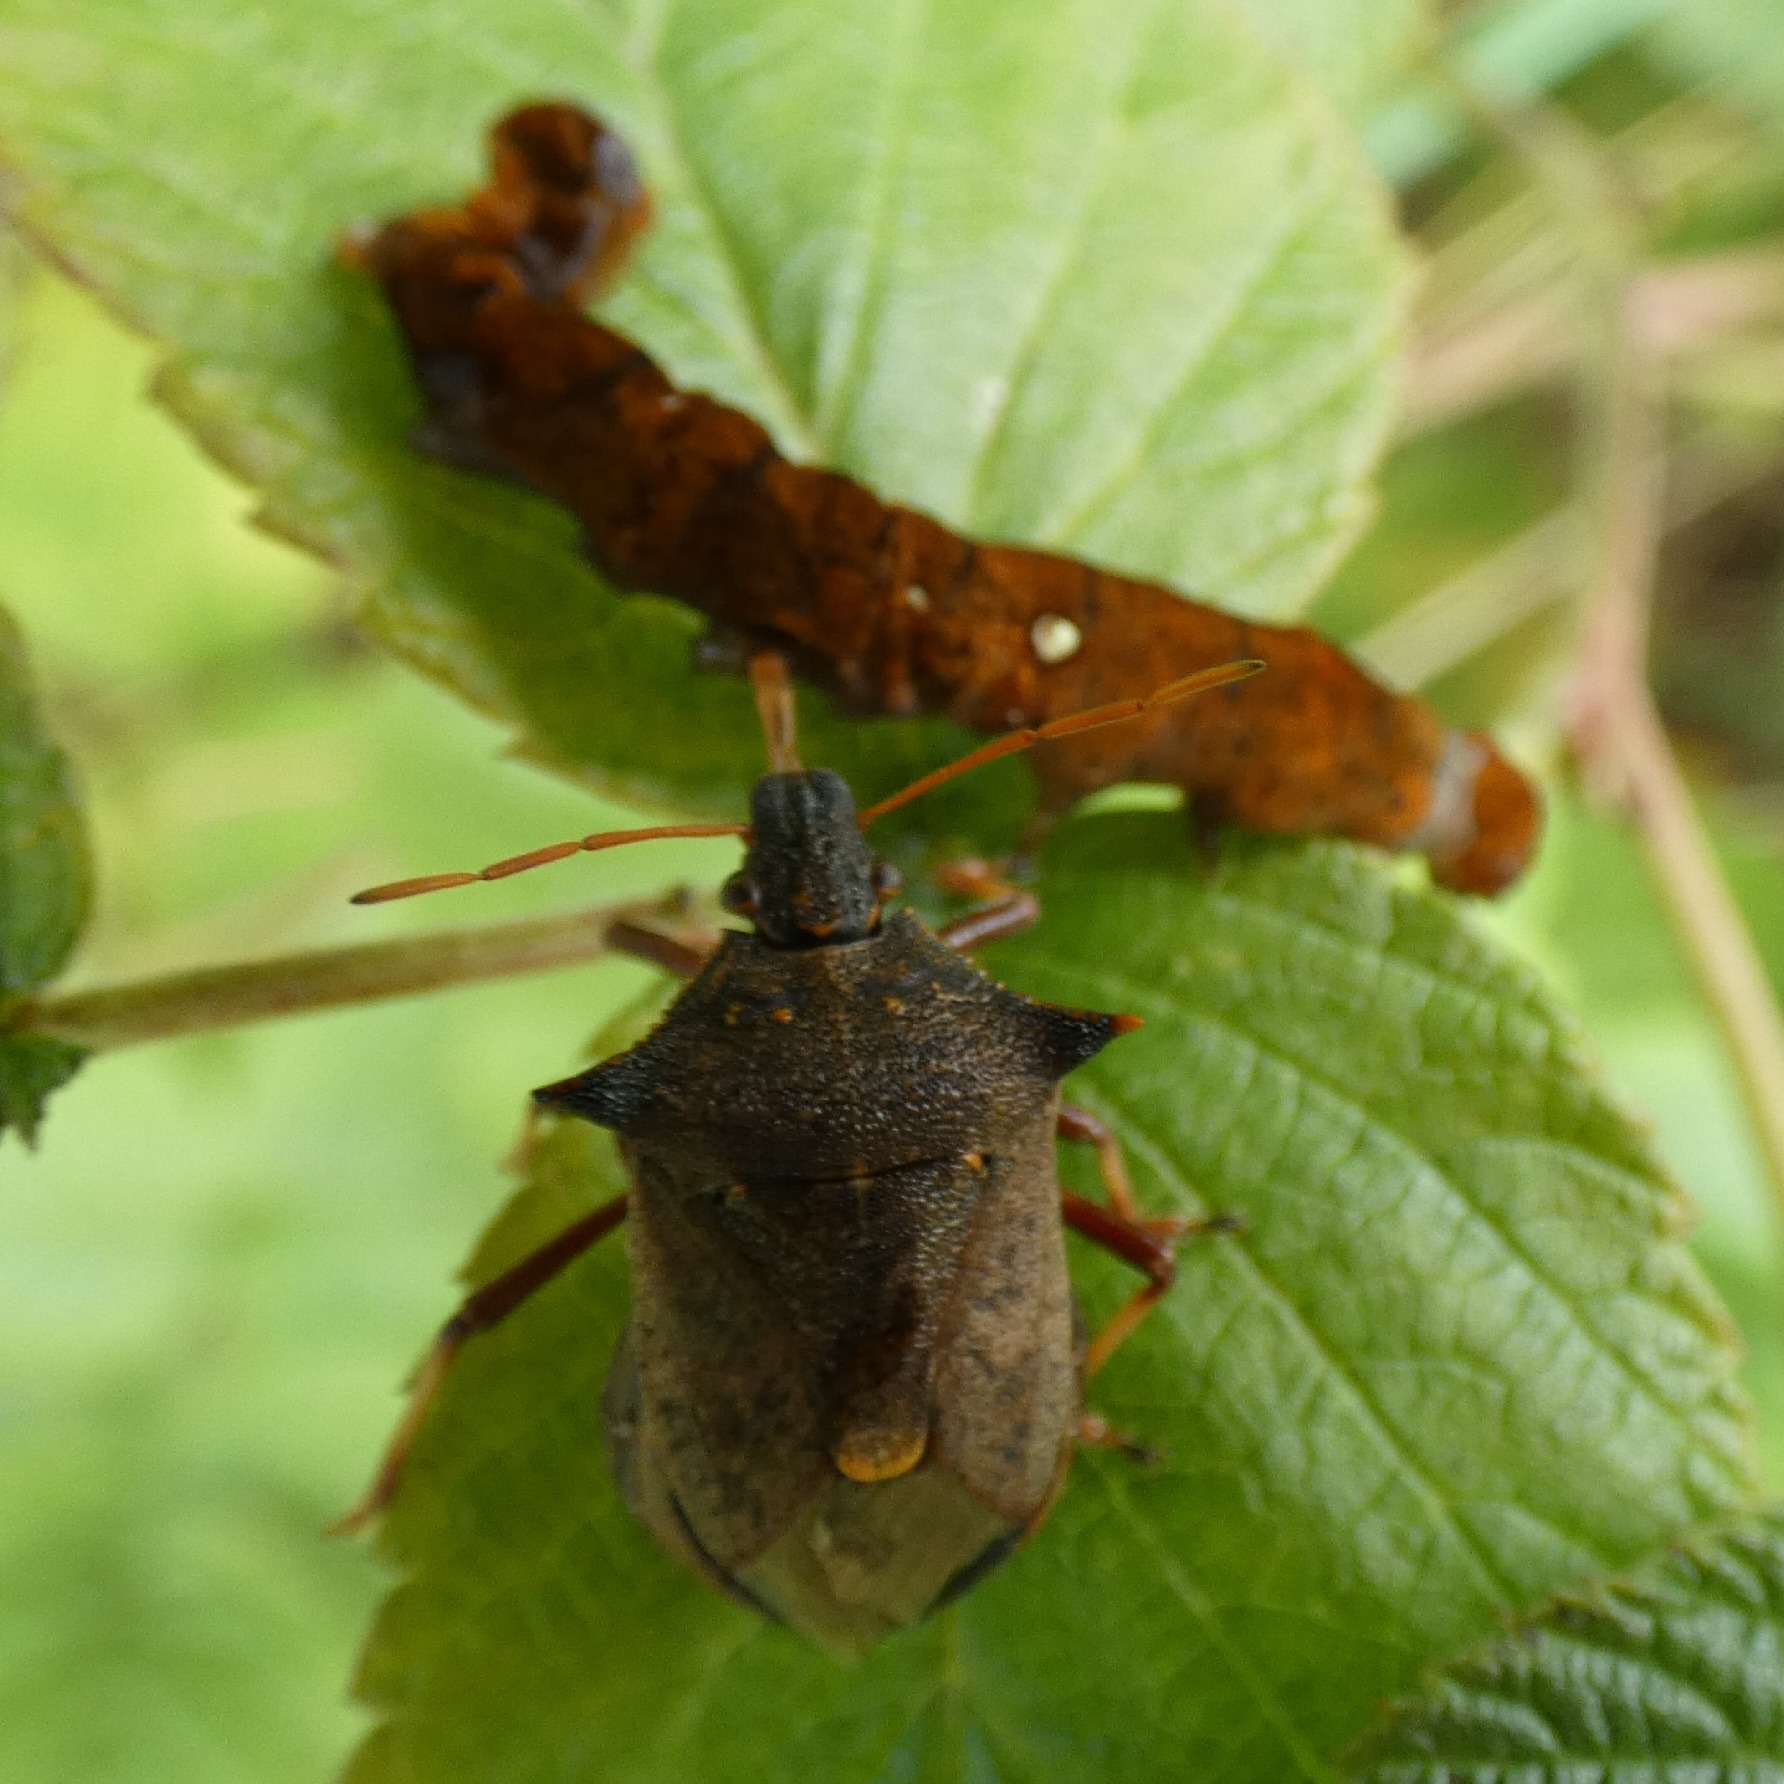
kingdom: Animalia
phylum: Arthropoda
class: Insecta
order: Hemiptera
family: Pentatomidae
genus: Picromerus
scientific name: Picromerus bidens
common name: Torntæge
